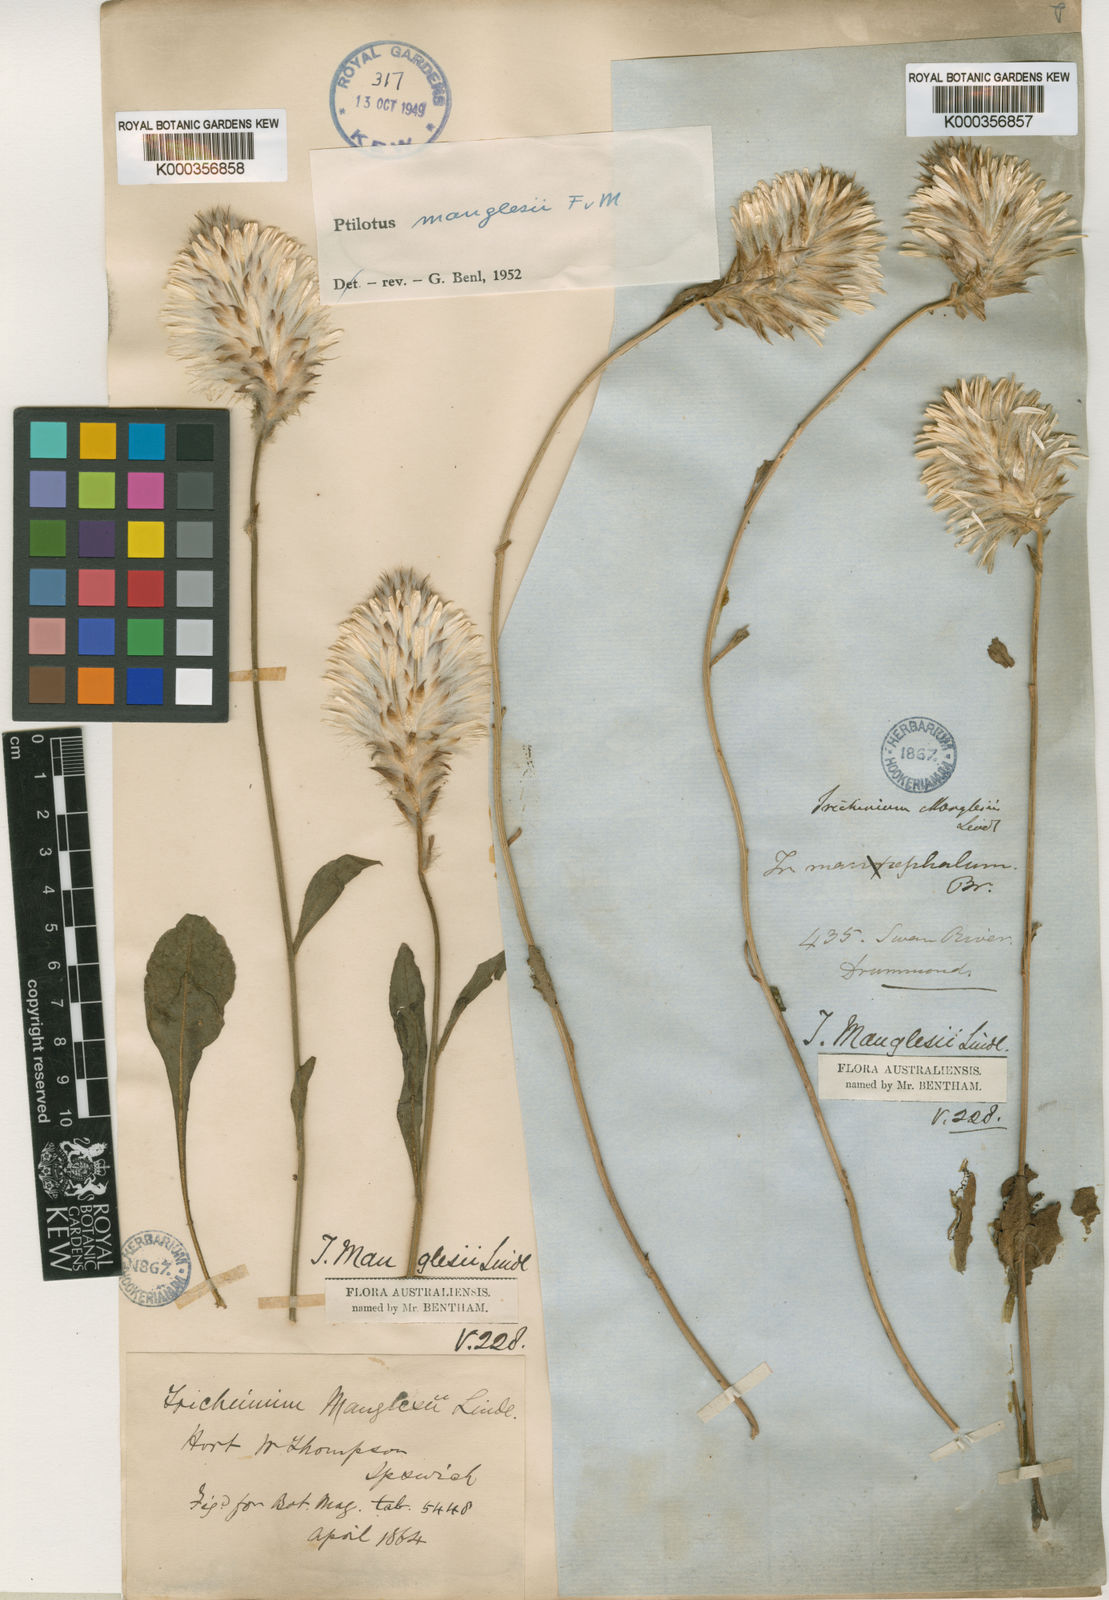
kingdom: Plantae
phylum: Tracheophyta
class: Magnoliopsida
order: Caryophyllales
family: Amaranthaceae
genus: Ptilotus
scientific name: Ptilotus manglesii
